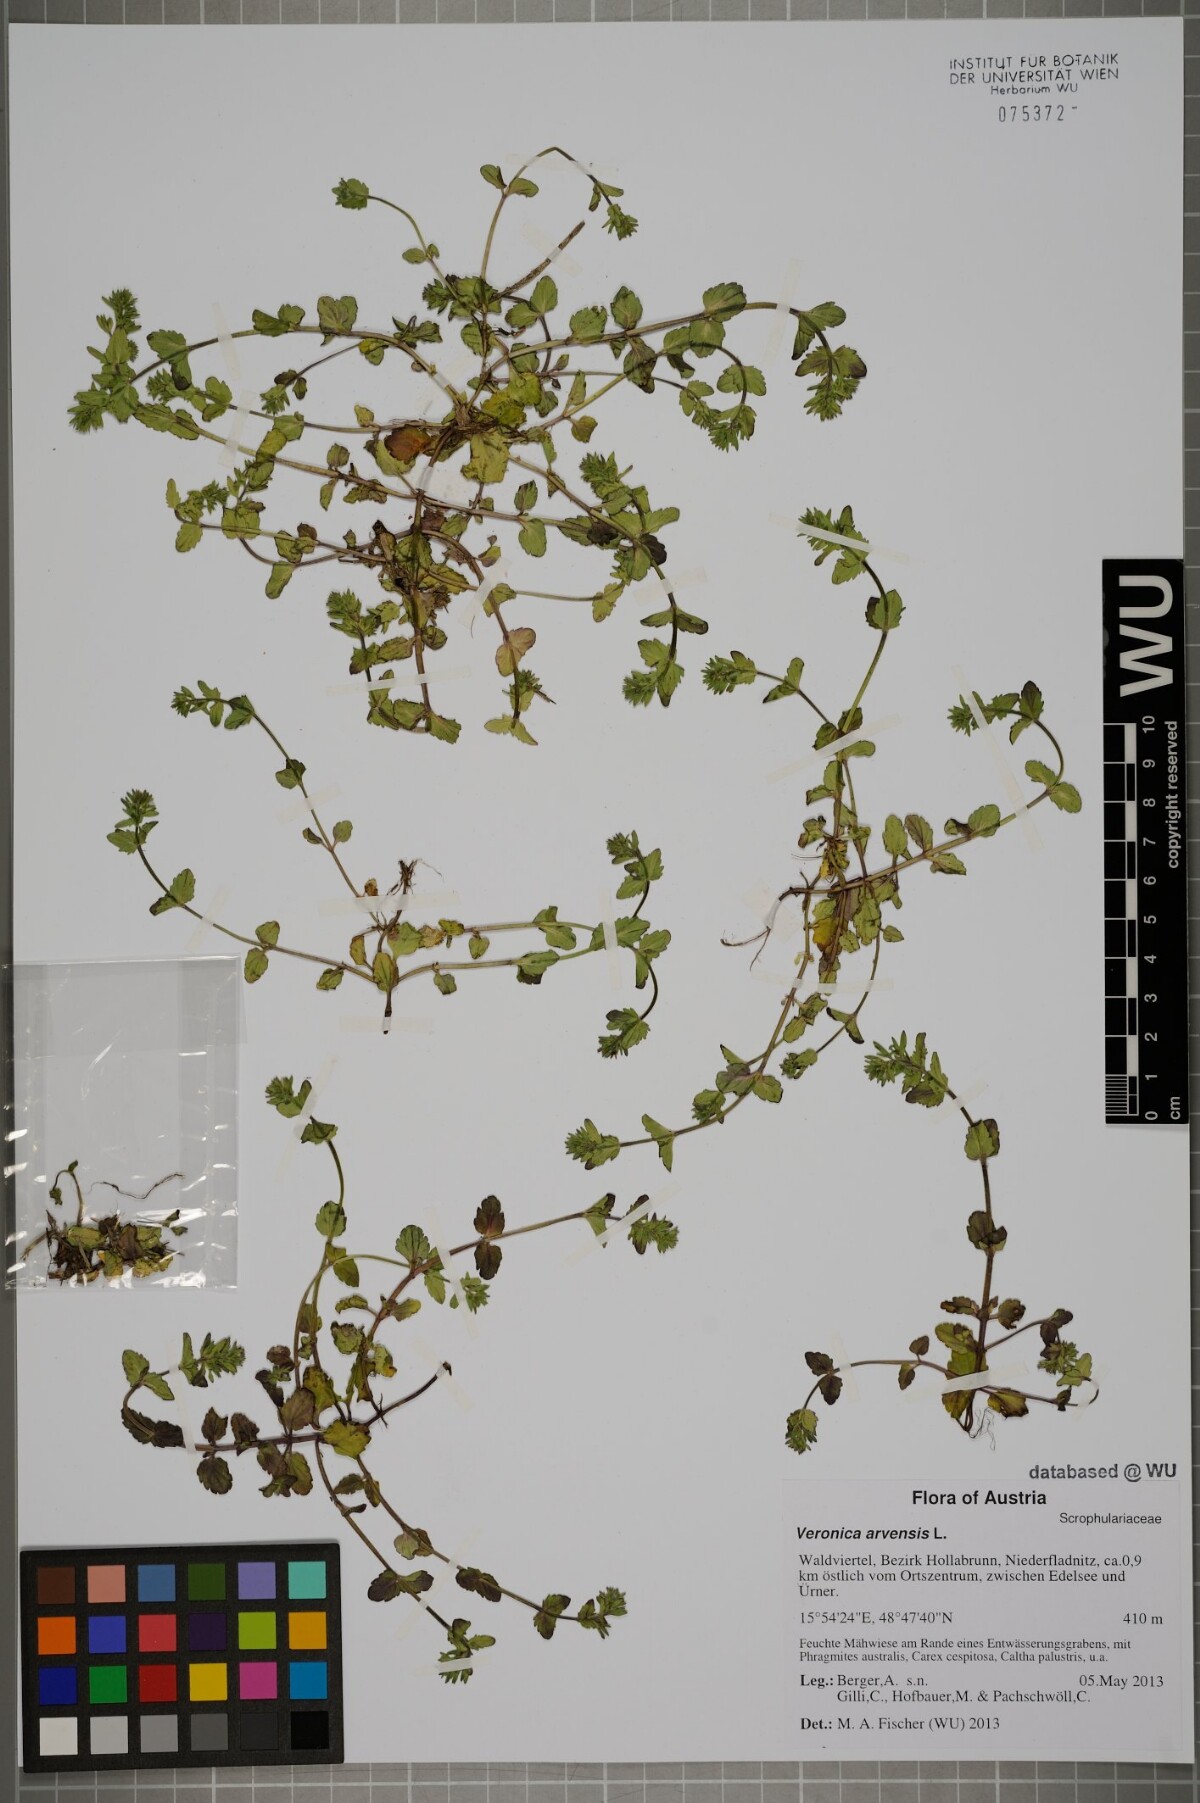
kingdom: Plantae
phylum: Tracheophyta
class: Magnoliopsida
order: Lamiales
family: Plantaginaceae
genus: Veronica
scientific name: Veronica arvensis
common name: Corn speedwell
